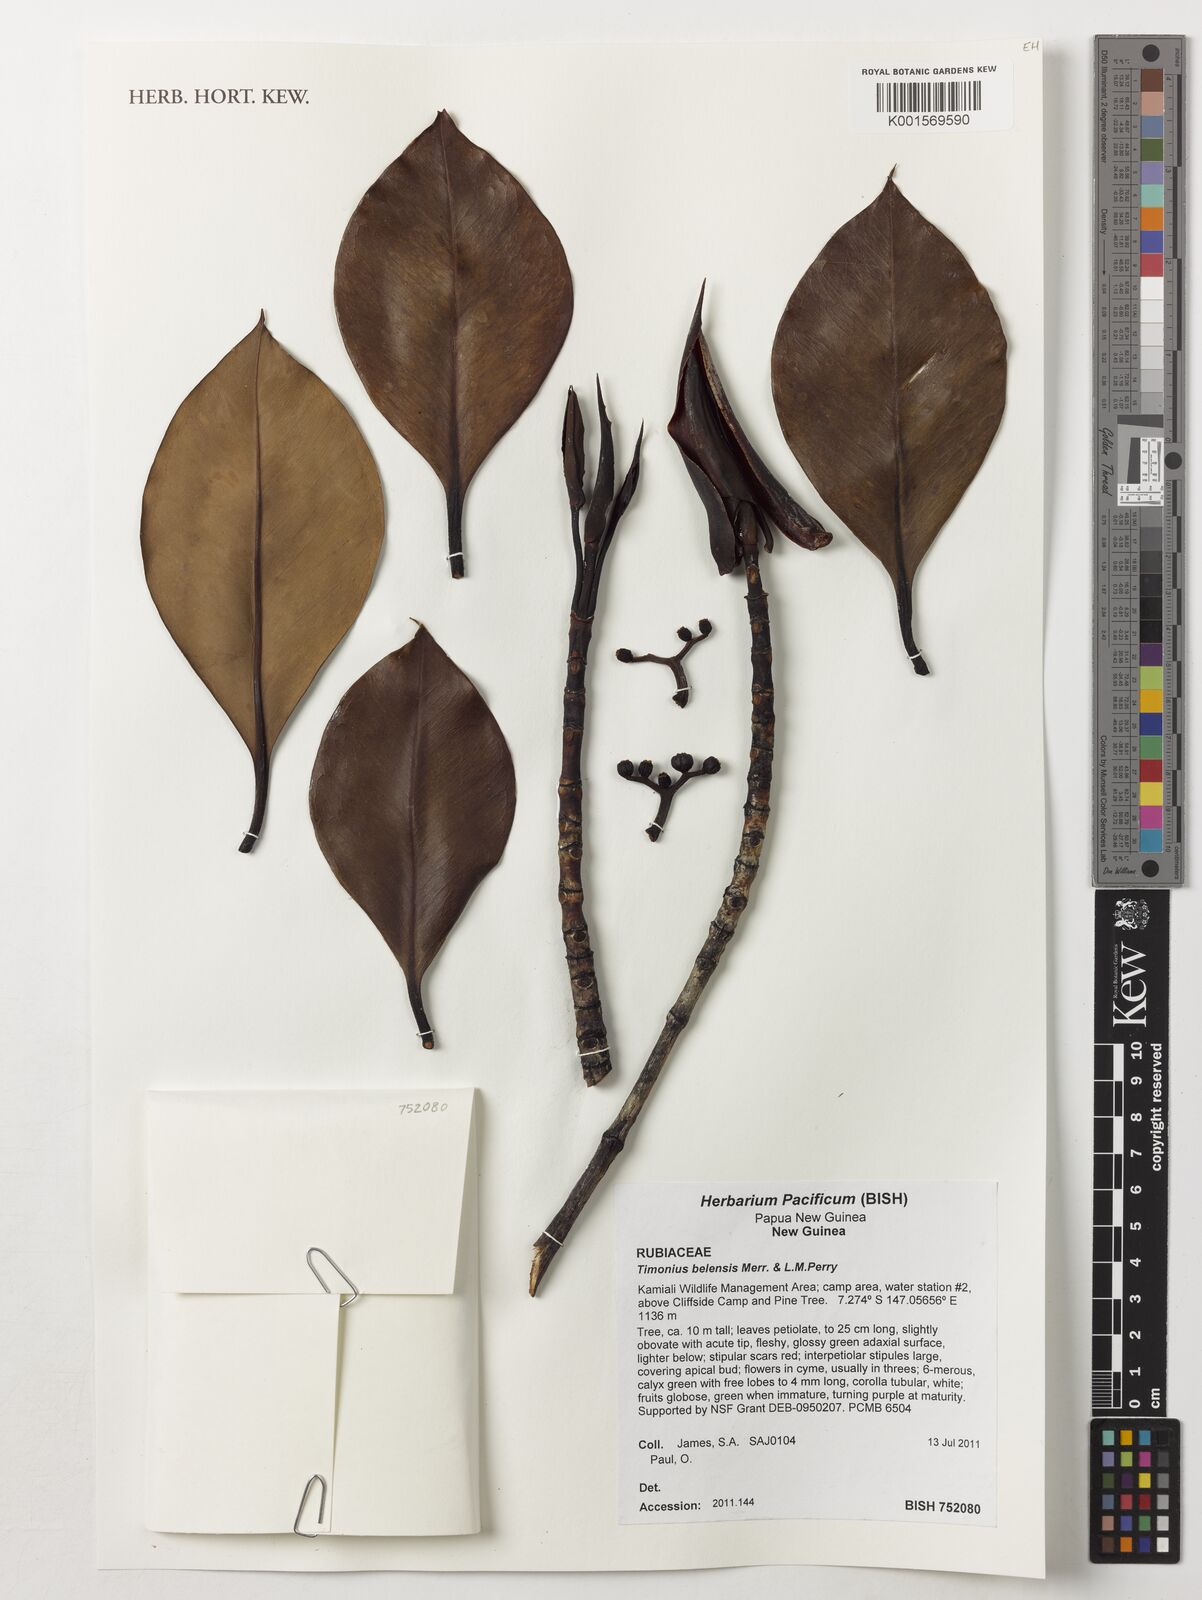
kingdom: Plantae
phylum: Tracheophyta
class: Magnoliopsida
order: Gentianales
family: Rubiaceae
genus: Timonius
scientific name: Timonius belensis
